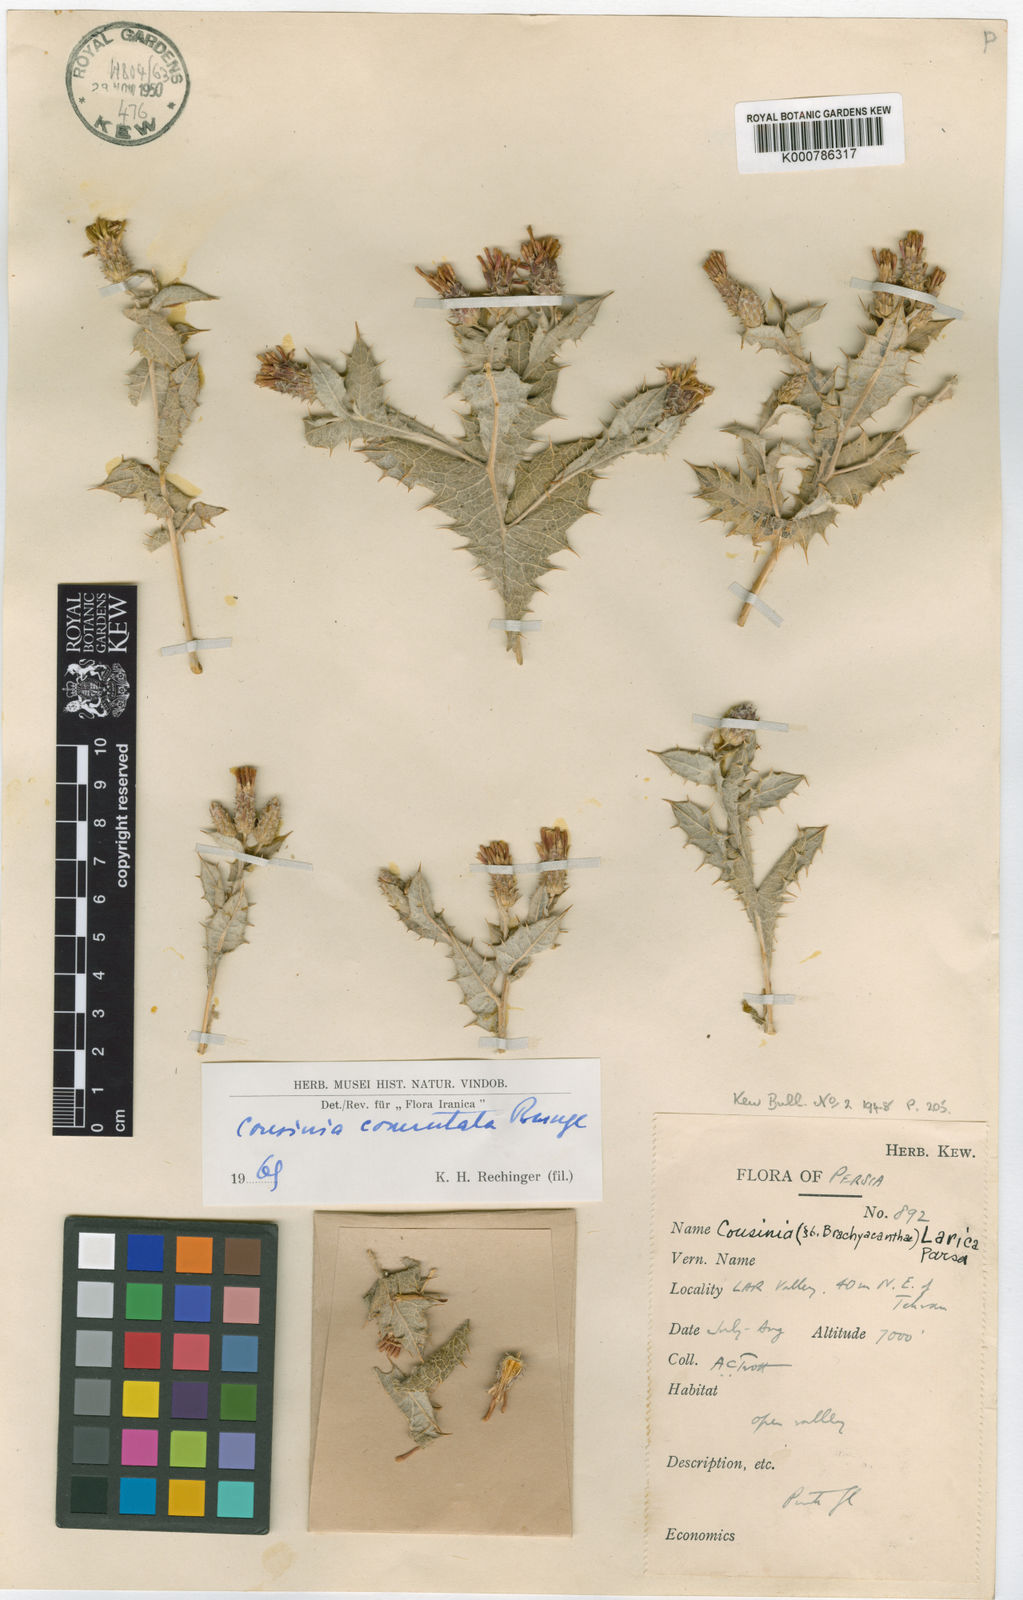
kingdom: Plantae
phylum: Tracheophyta
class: Magnoliopsida
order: Asterales
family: Asteraceae
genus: Cousinia
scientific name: Cousinia commutata
